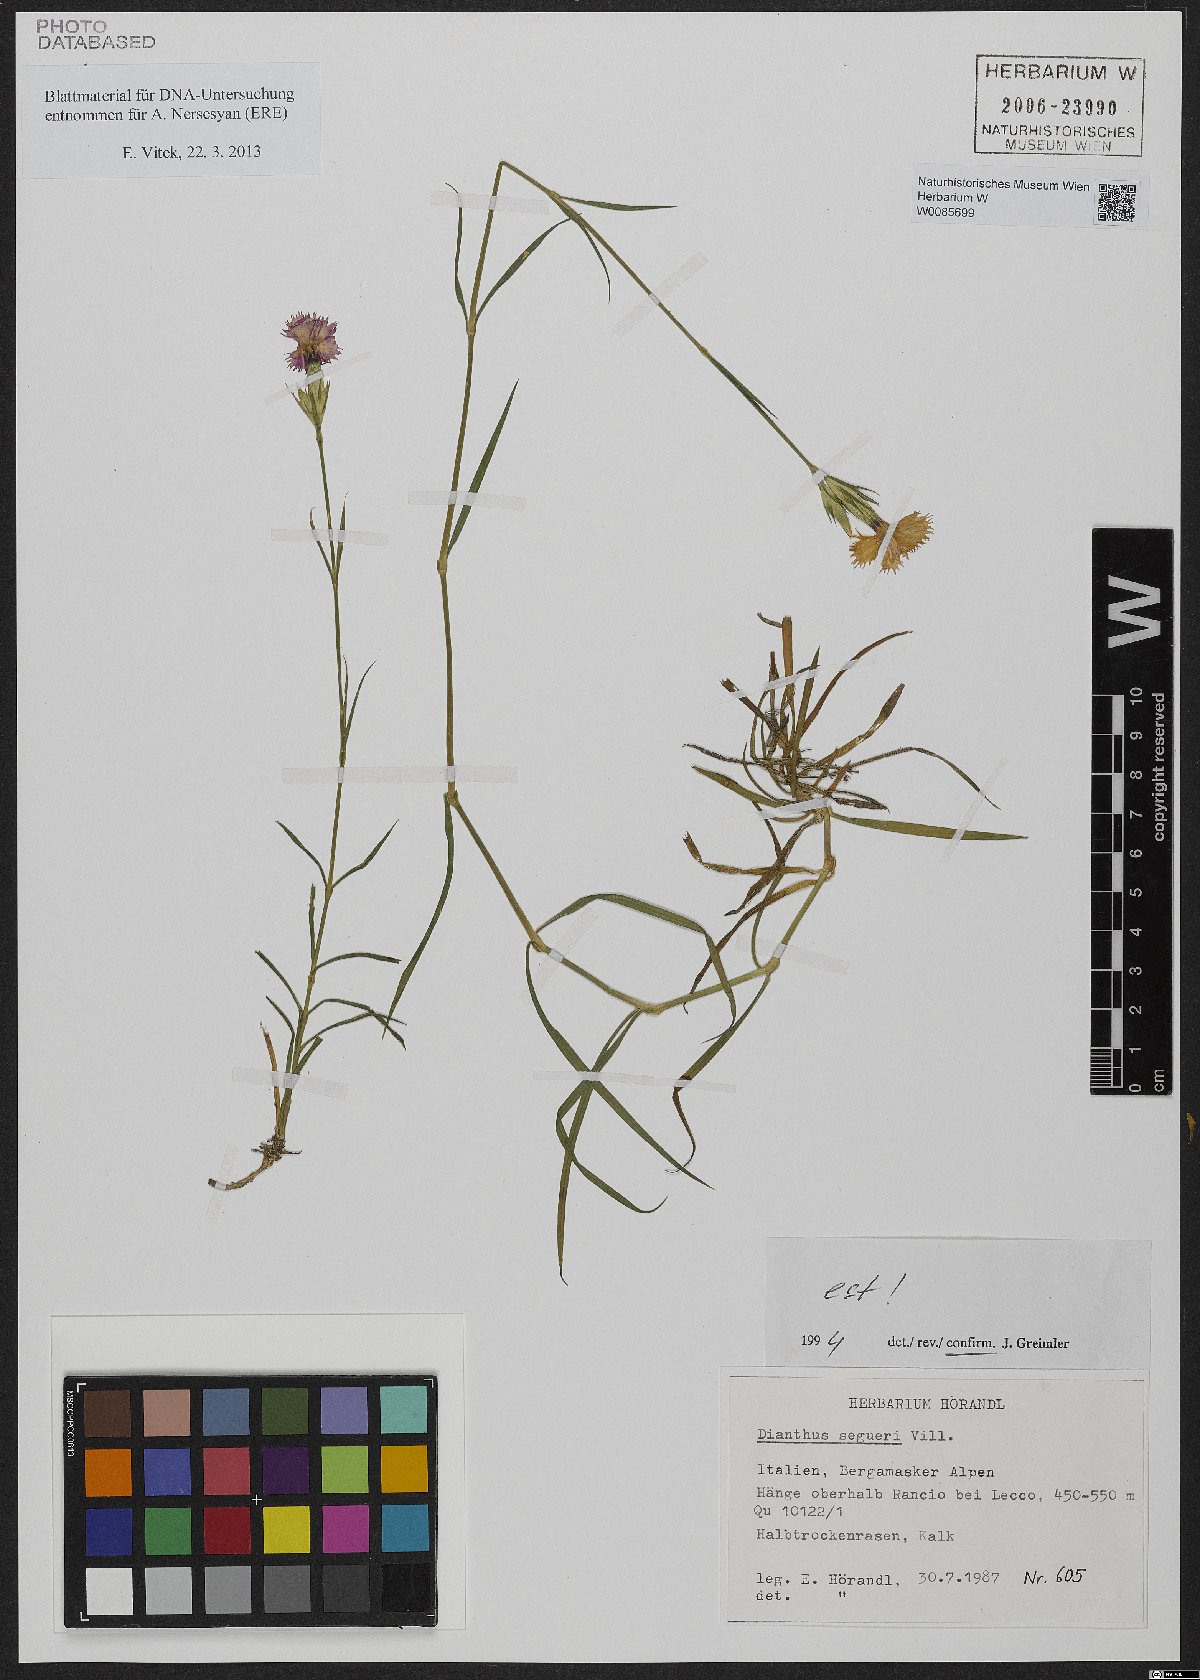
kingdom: Plantae
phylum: Tracheophyta
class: Magnoliopsida
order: Caryophyllales
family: Caryophyllaceae
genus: Dianthus
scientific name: Dianthus seguieri
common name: Ragged pink
